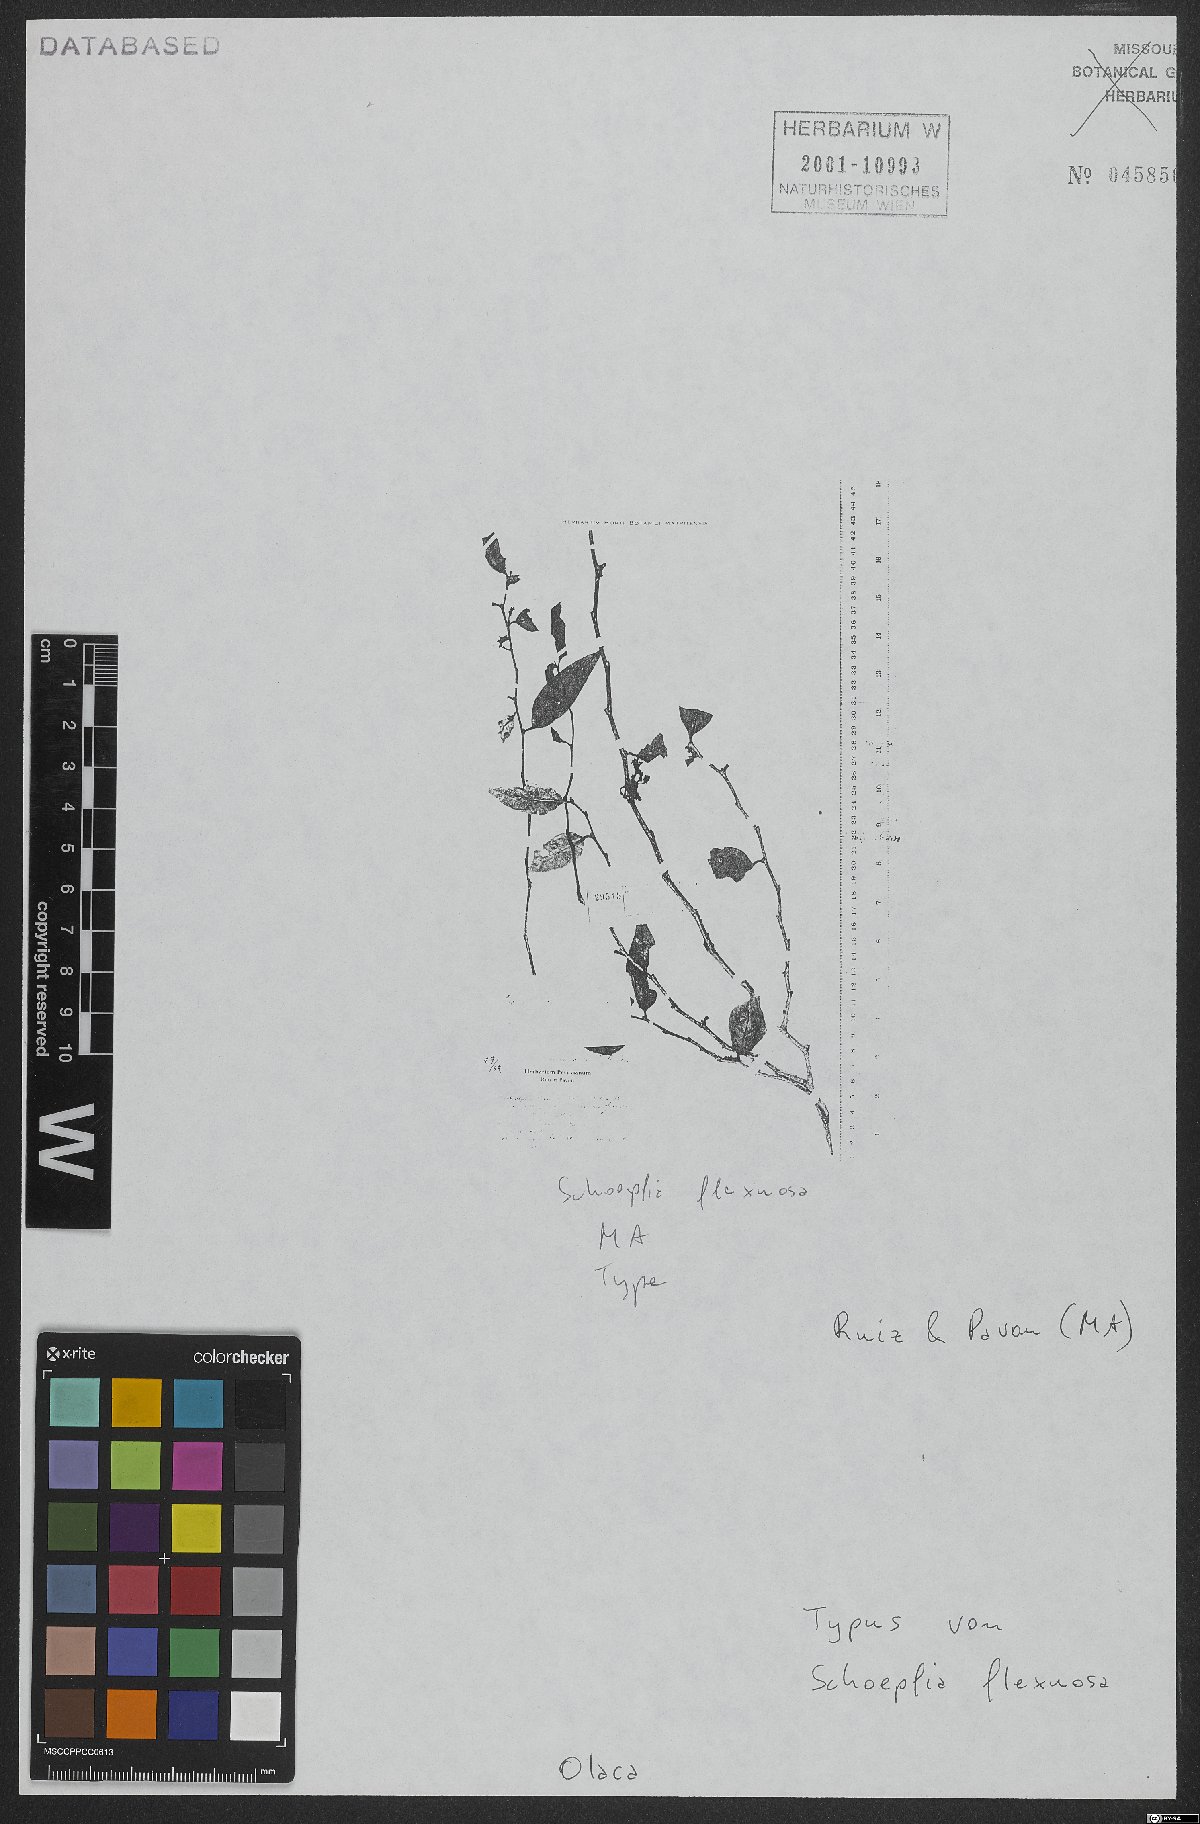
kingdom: Plantae
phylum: Tracheophyta
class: Magnoliopsida
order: Santalales
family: Schoepfiaceae
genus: Schoepfia
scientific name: Schoepfia flexuosa
